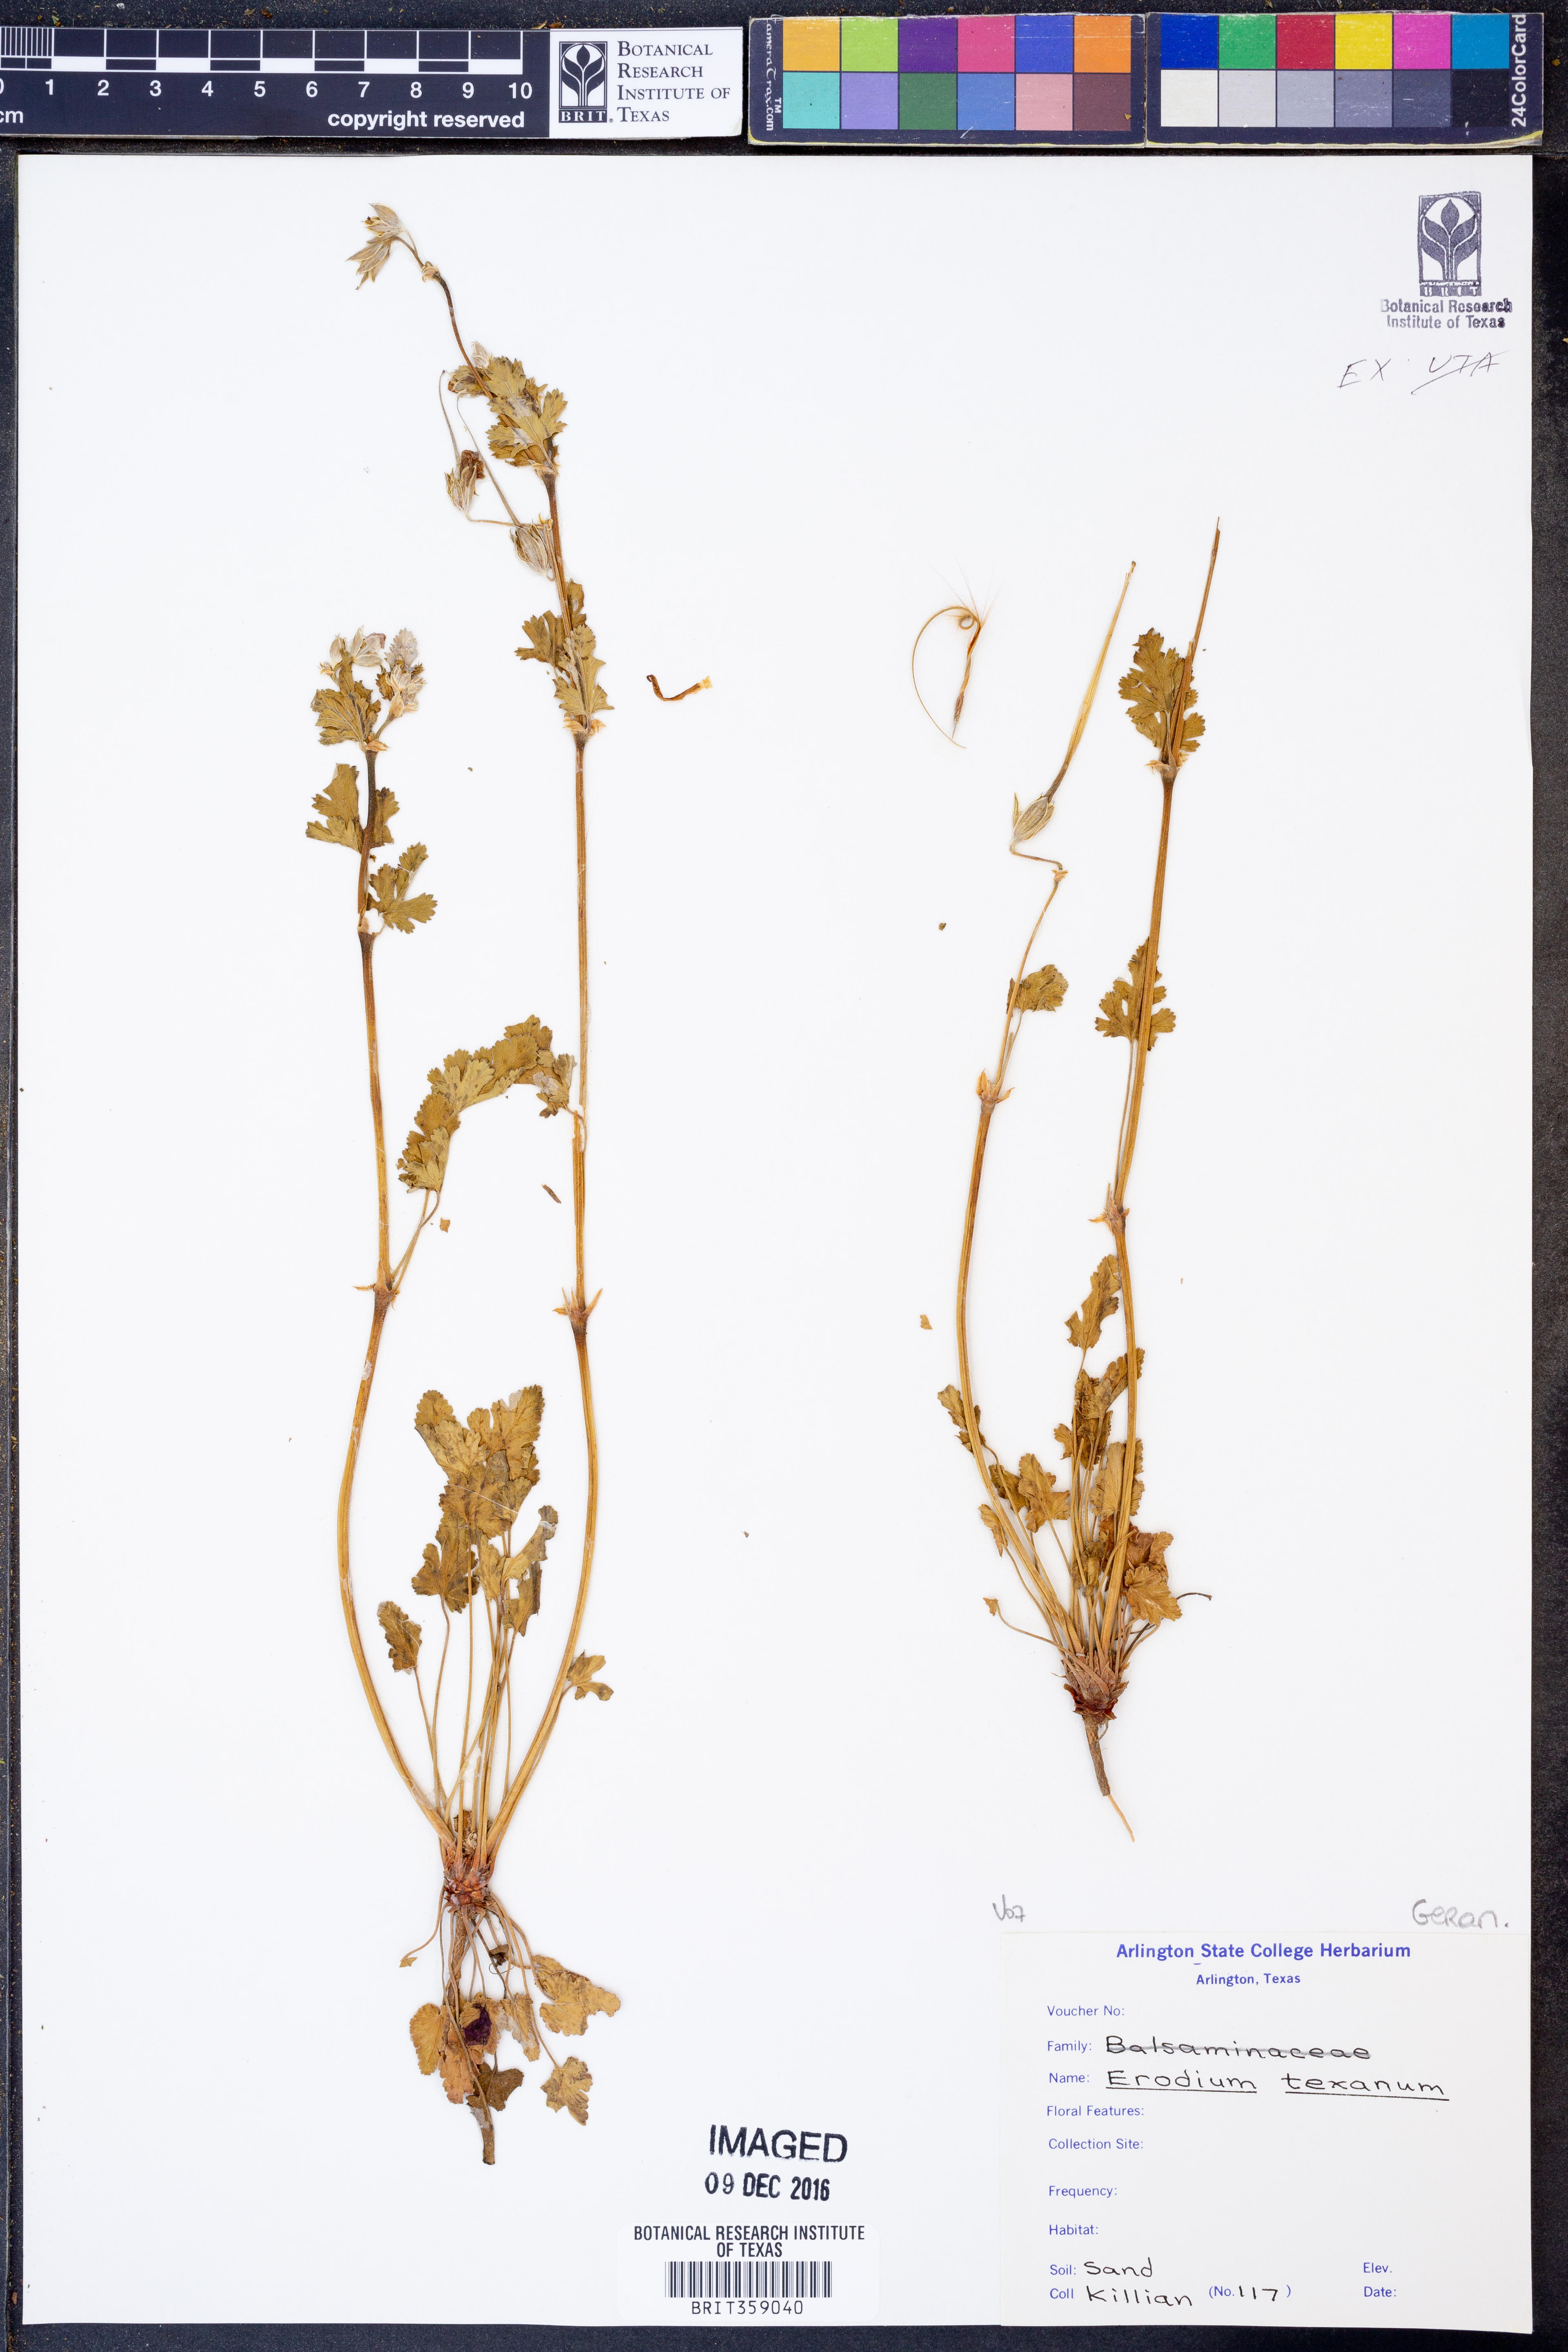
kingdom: Plantae
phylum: Tracheophyta
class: Magnoliopsida
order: Geraniales
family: Geraniaceae
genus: Erodium
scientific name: Erodium texanum
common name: Texas stork's-bill
